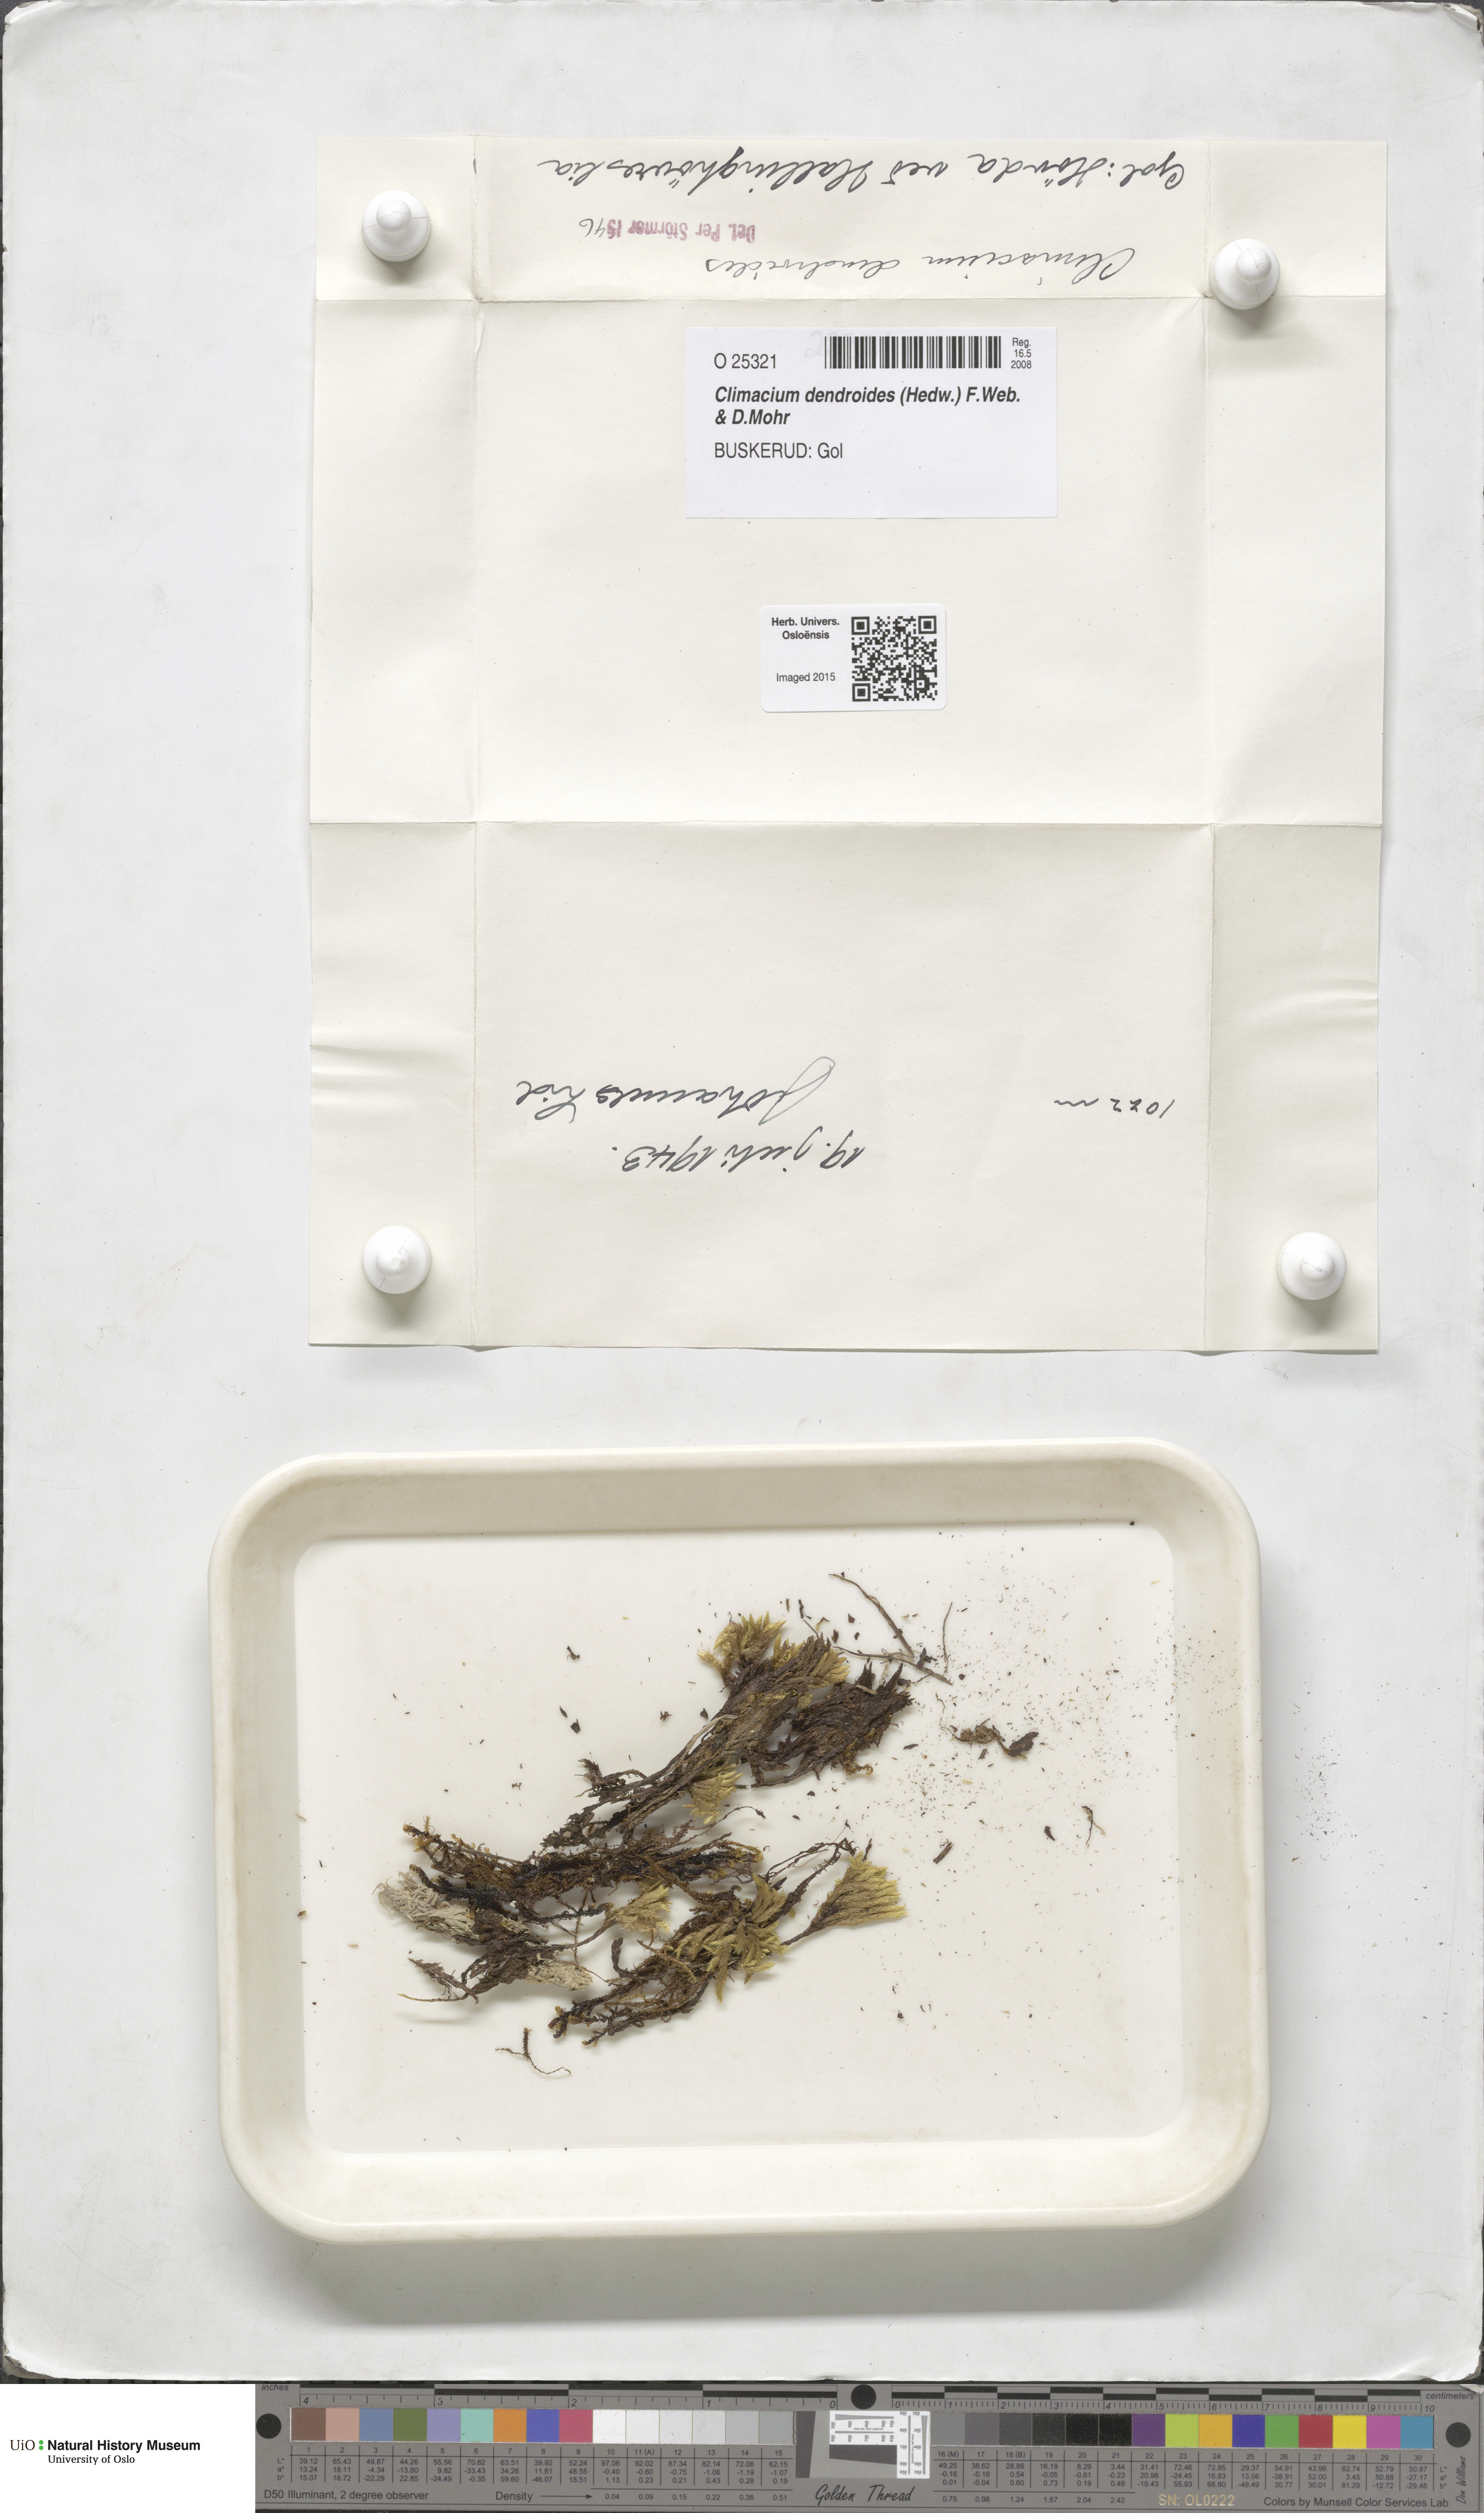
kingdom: Plantae
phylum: Bryophyta
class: Bryopsida
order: Hypnales
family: Climaciaceae
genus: Climacium
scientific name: Climacium dendroides
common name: Northern tree moss
